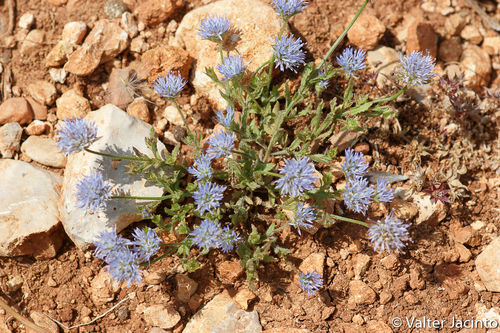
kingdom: Plantae
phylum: Tracheophyta
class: Magnoliopsida
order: Asterales
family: Campanulaceae
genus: Jasione
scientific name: Jasione montana
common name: Sheep's-bit
